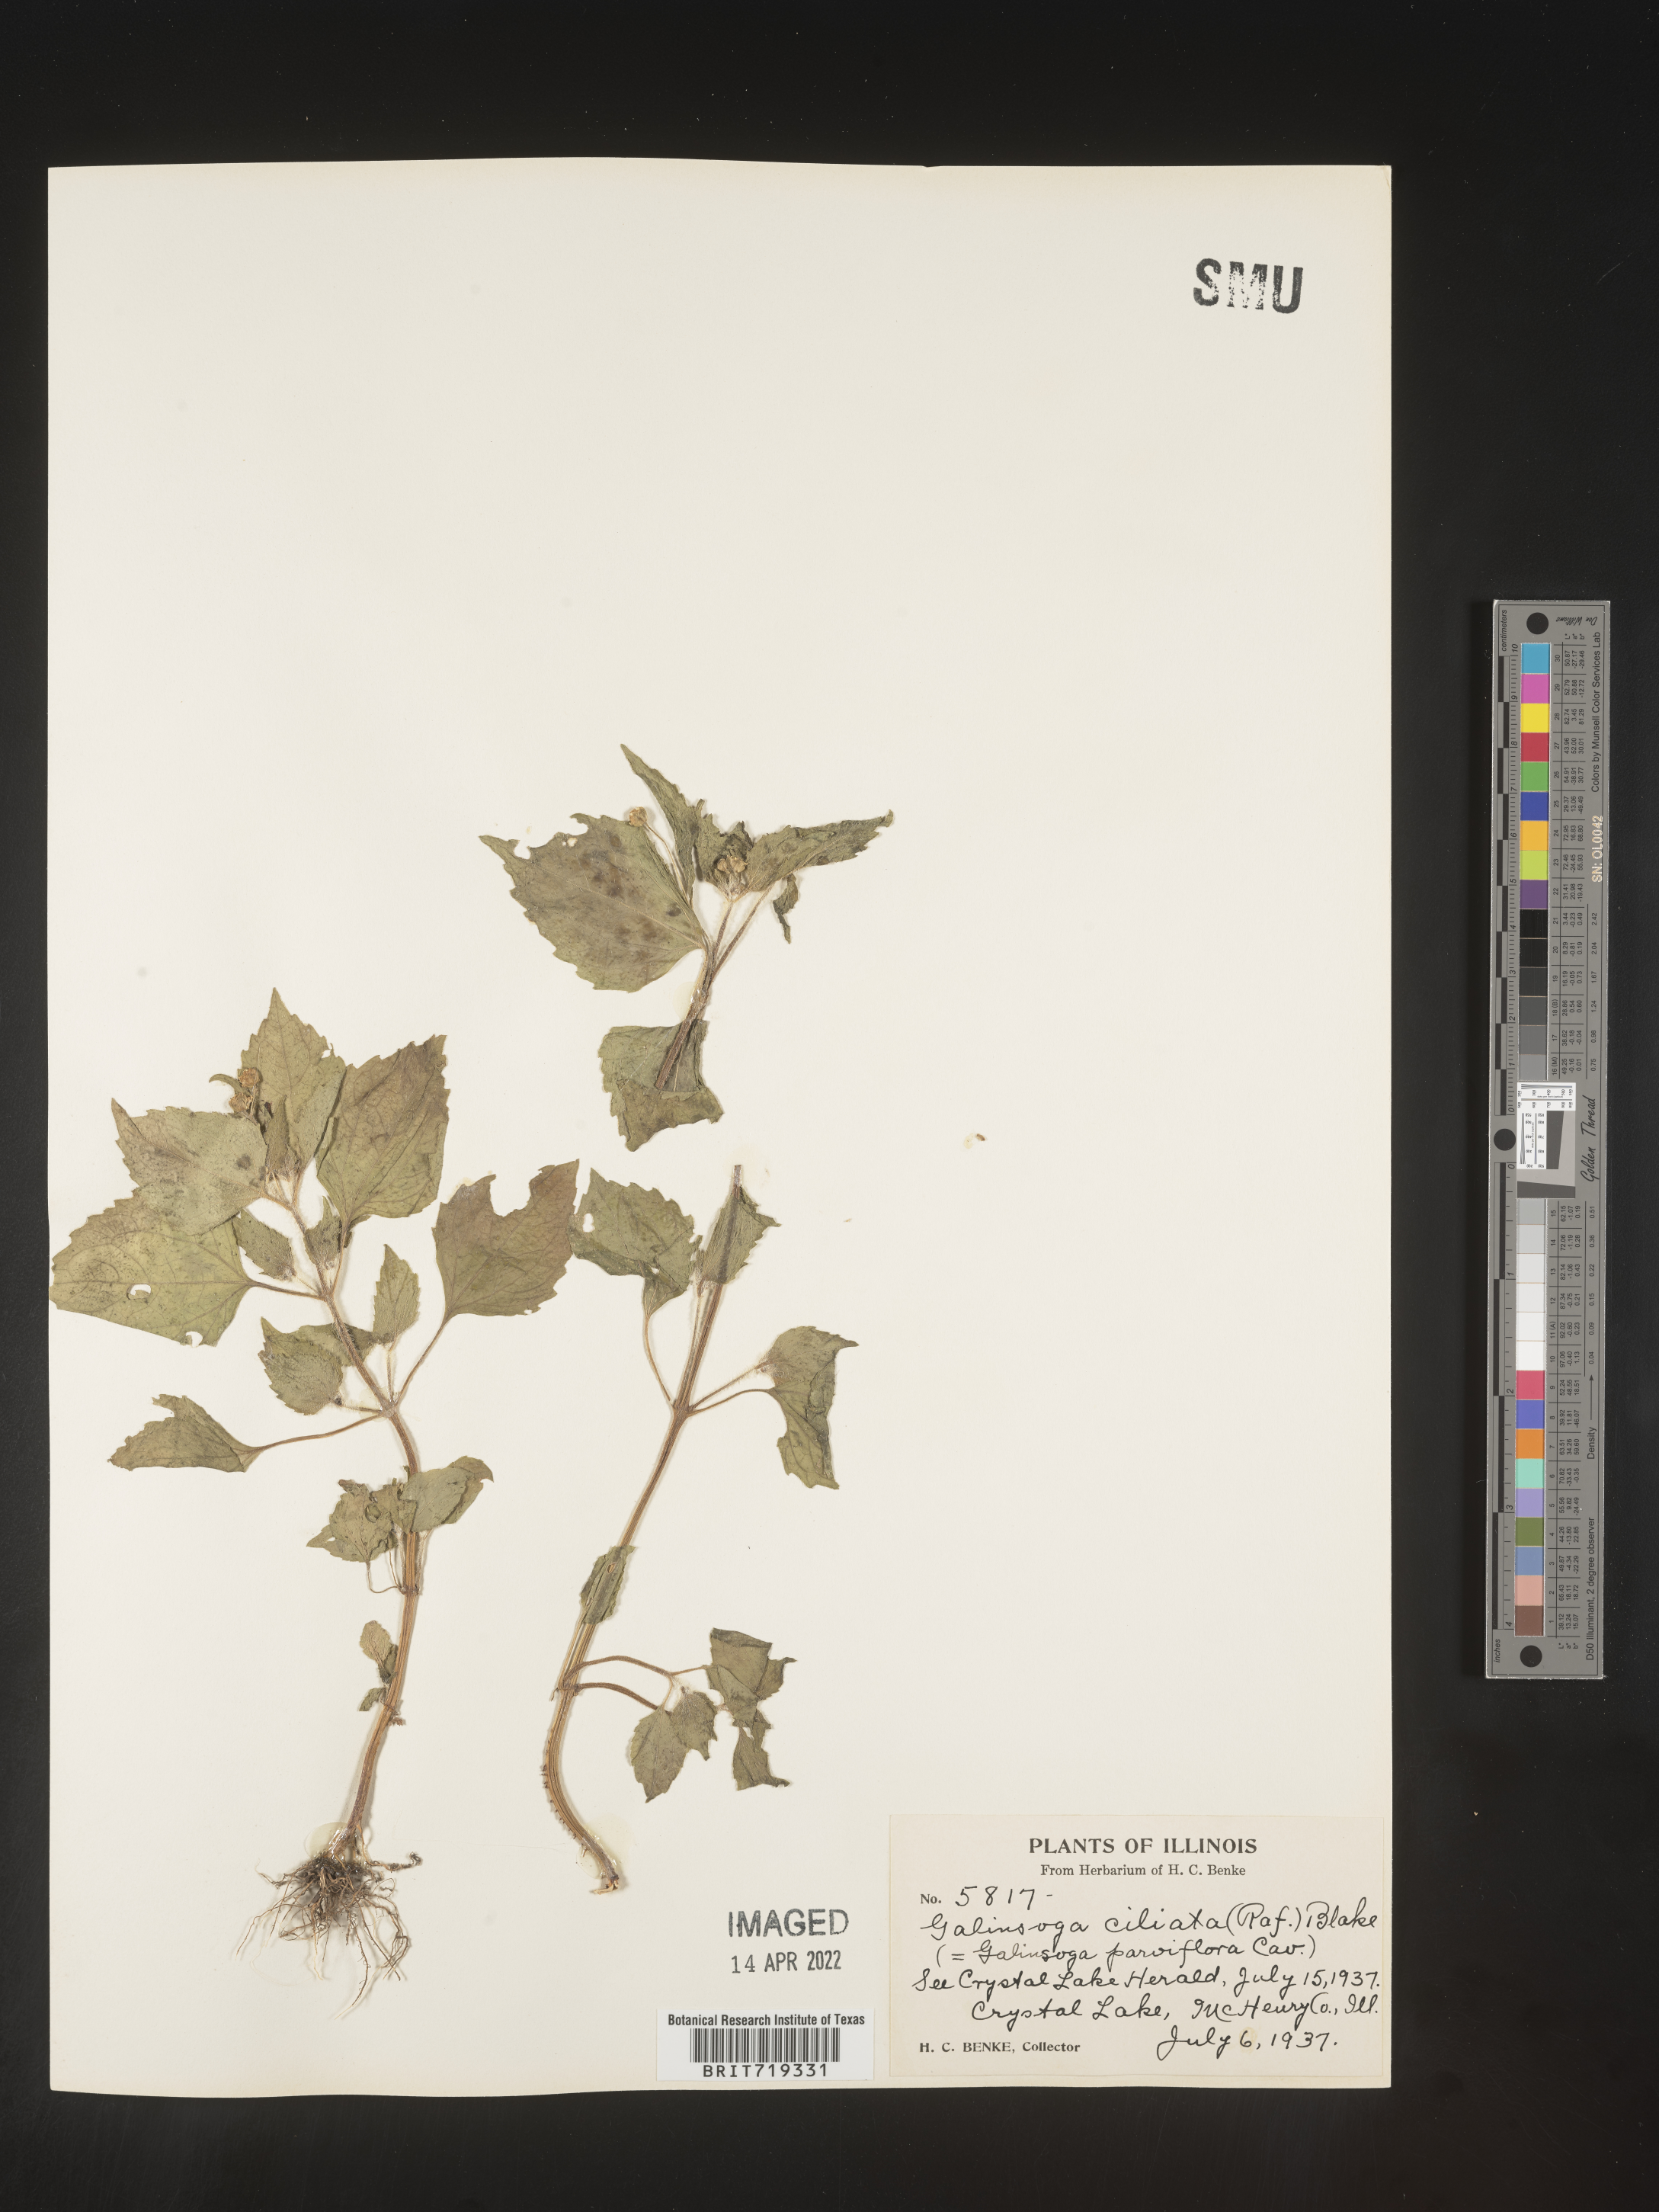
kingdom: Plantae
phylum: Tracheophyta
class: Magnoliopsida
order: Asterales
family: Asteraceae
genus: Galinsoga
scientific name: Galinsoga quadriradiata
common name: Shaggy soldier
